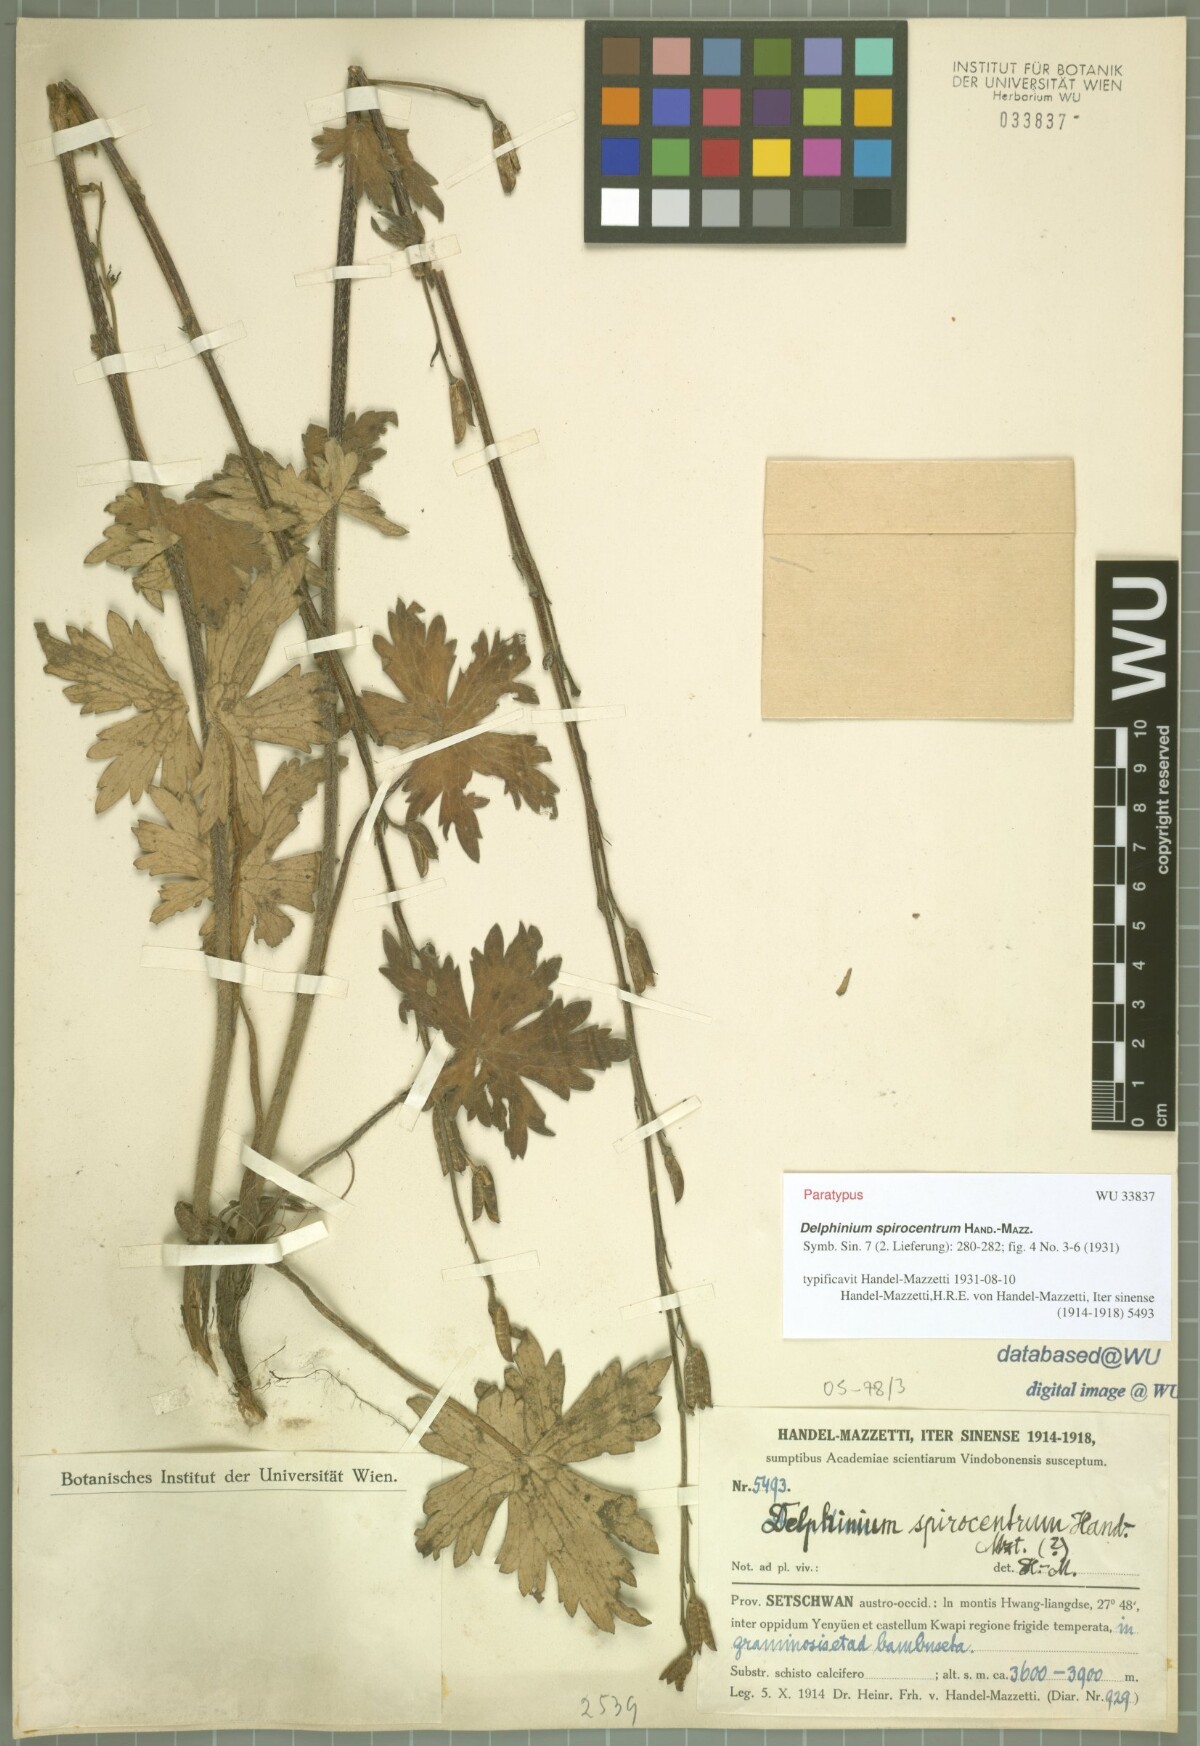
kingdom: Plantae
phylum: Tracheophyta
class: Magnoliopsida
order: Ranunculales
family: Ranunculaceae
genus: Delphinium
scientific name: Delphinium spirocentrum
